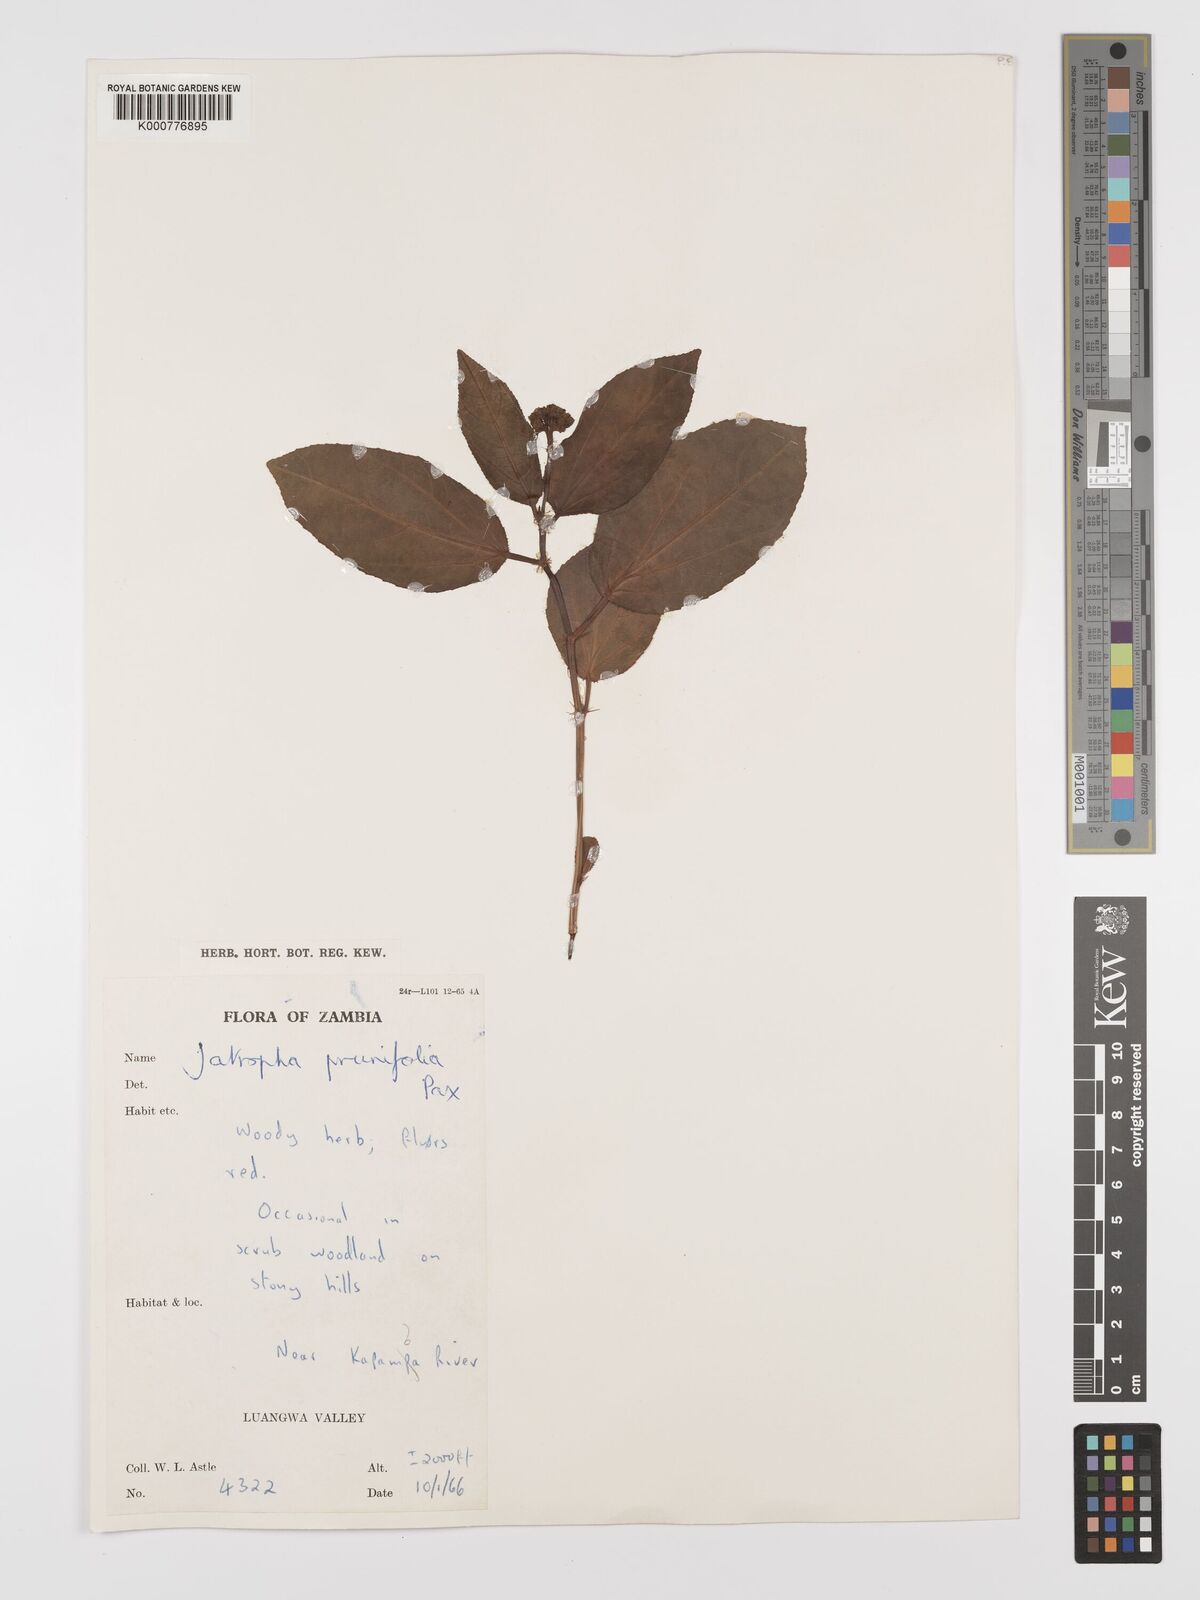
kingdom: Plantae
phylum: Tracheophyta
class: Magnoliopsida
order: Malpighiales
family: Euphorbiaceae
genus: Jatropha
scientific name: Jatropha
